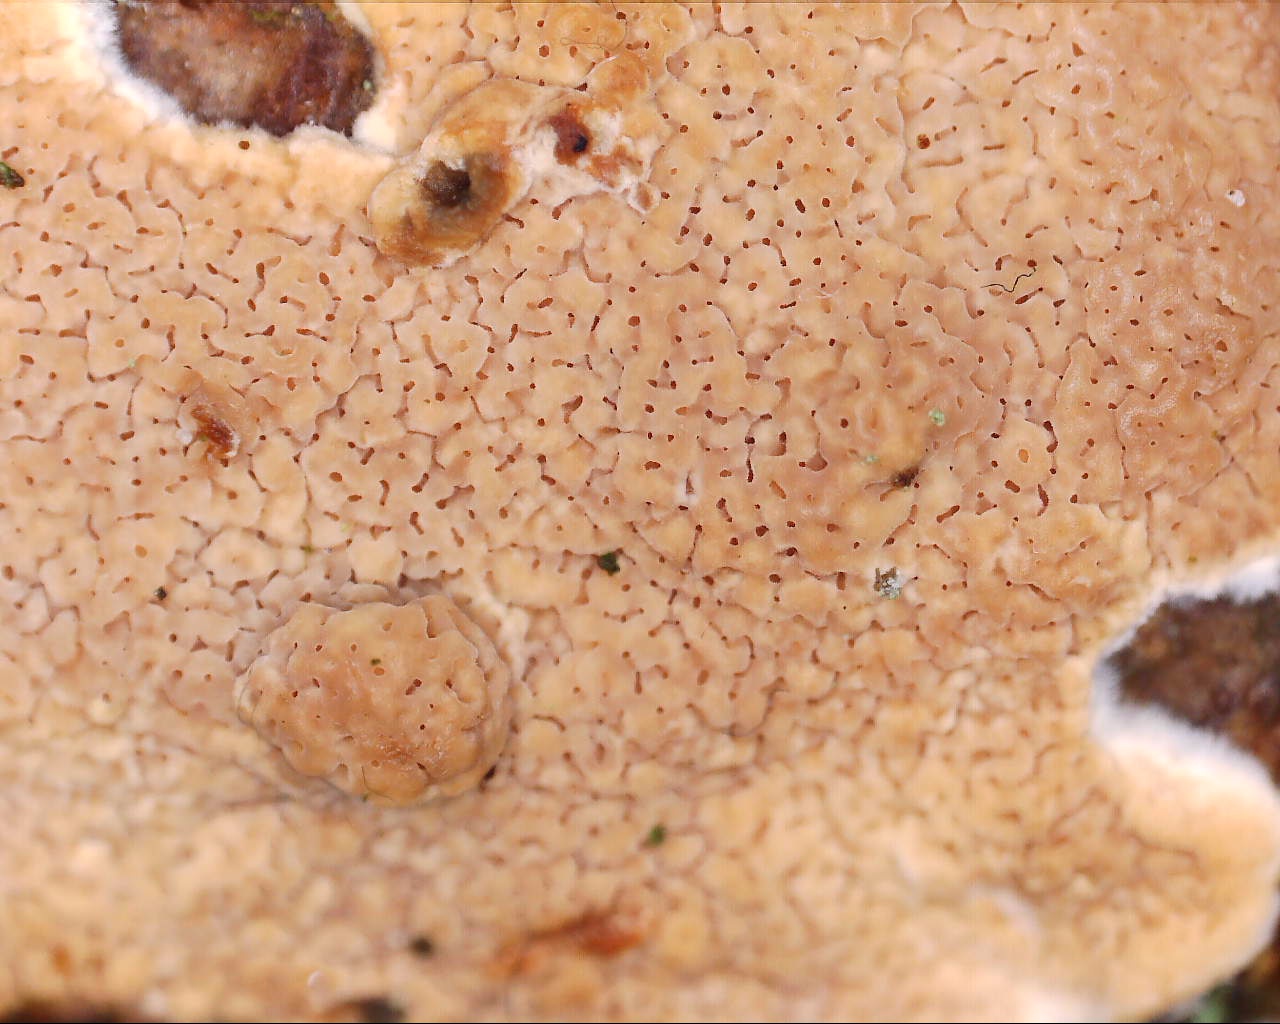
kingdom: Fungi
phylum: Basidiomycota
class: Agaricomycetes
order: Polyporales
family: Irpicaceae
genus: Meruliopsis
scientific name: Meruliopsis taxicola
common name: purpurbrun foldporesvamp
